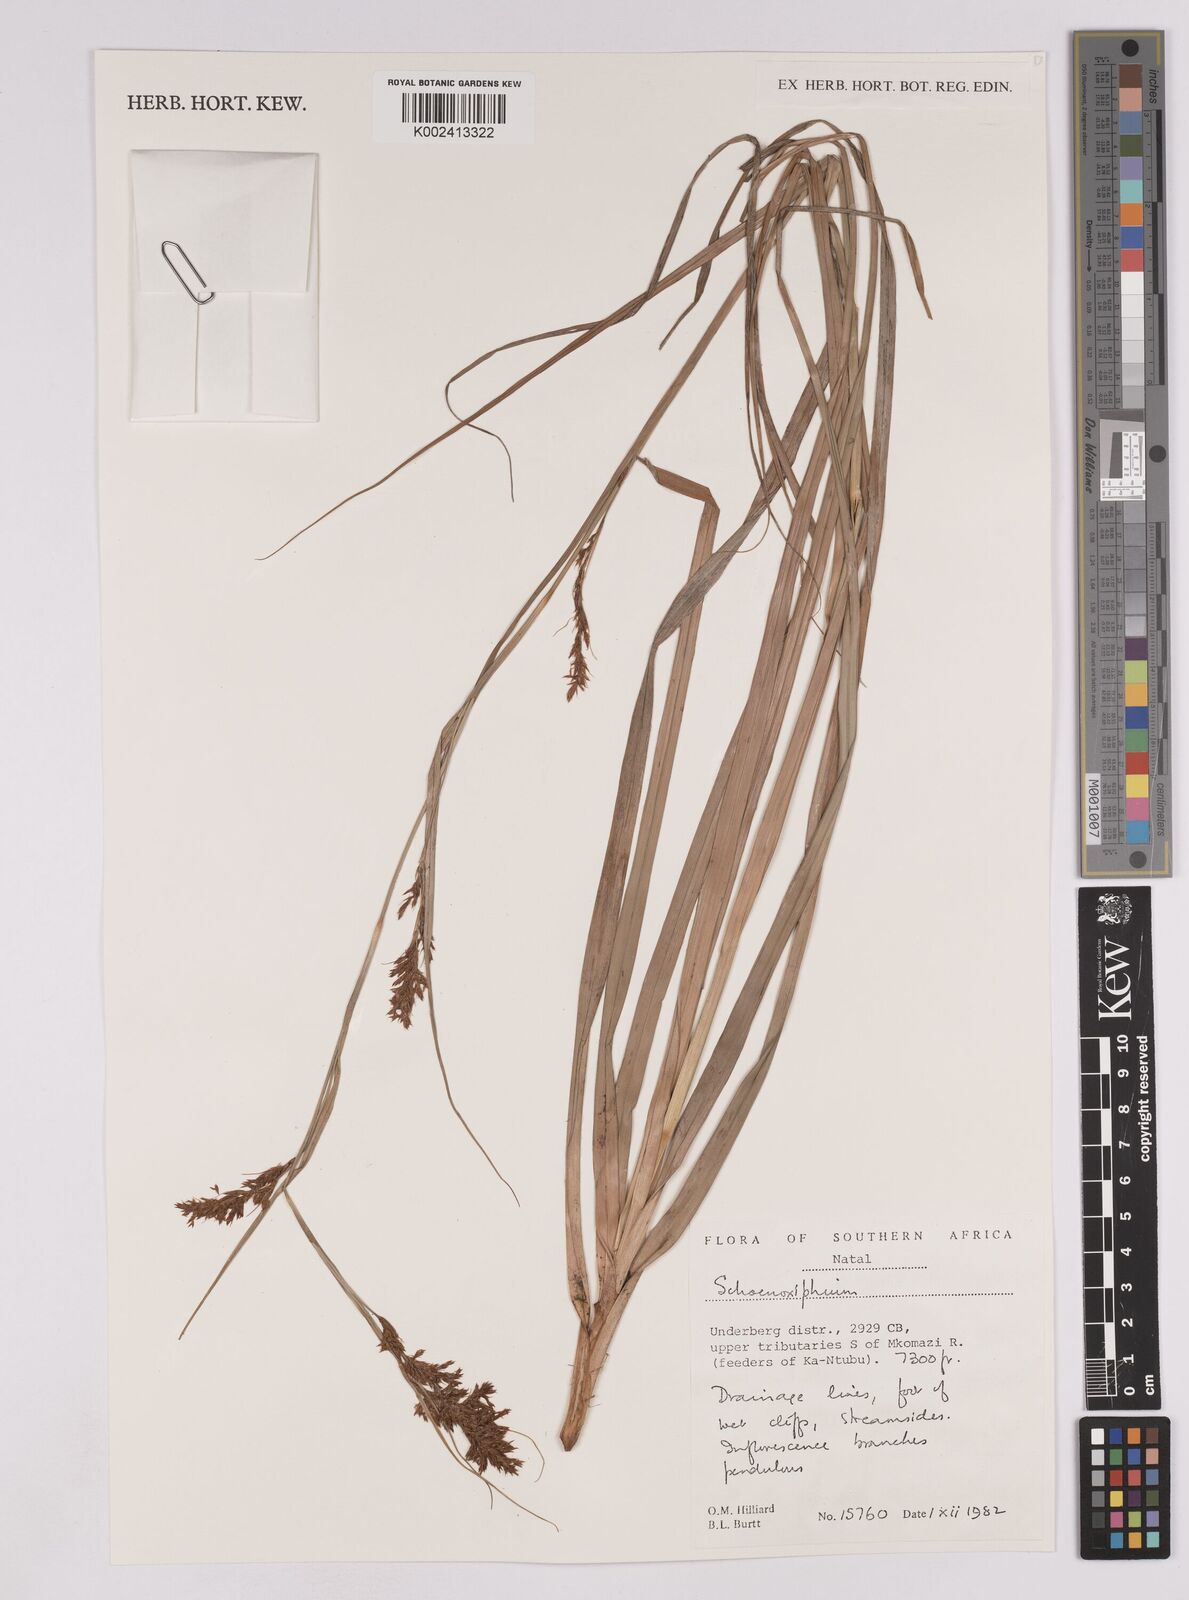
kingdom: Plantae
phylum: Tracheophyta
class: Liliopsida
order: Poales
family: Cyperaceae
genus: Carex
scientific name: Carex
